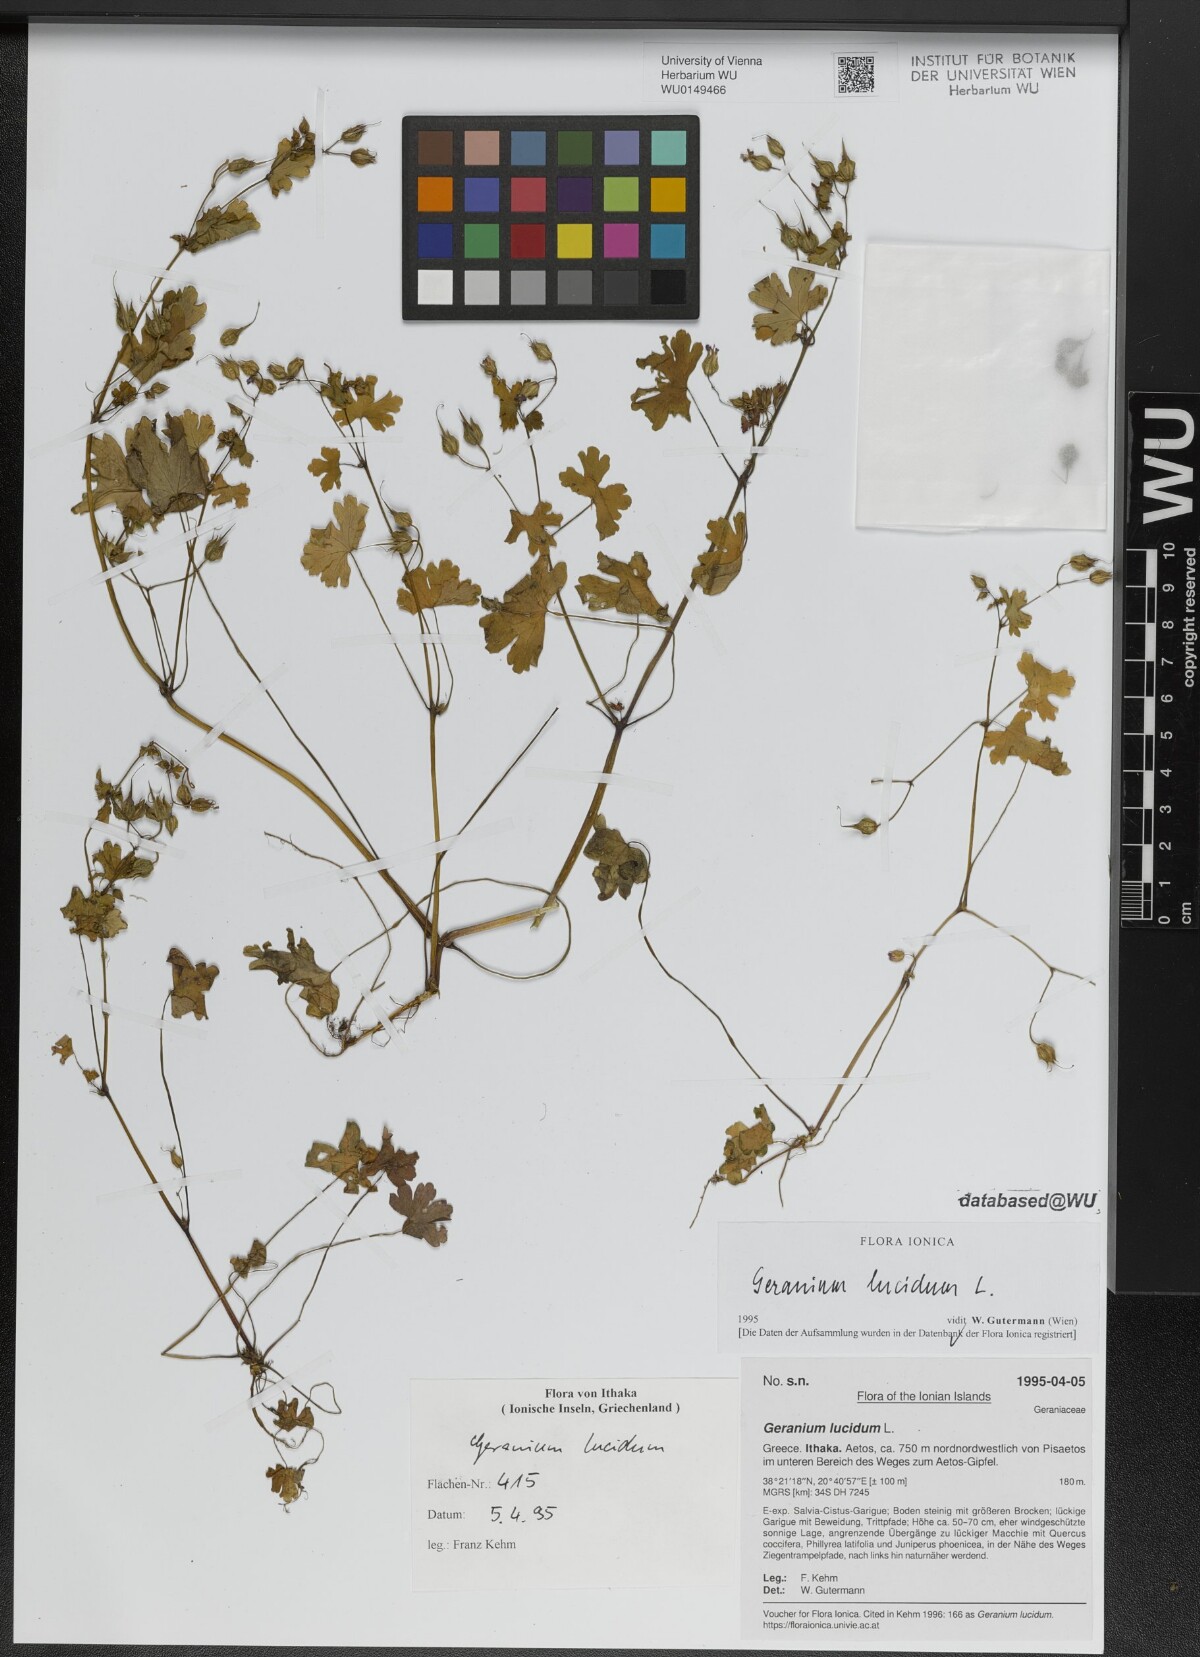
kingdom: Plantae
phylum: Tracheophyta
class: Magnoliopsida
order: Geraniales
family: Geraniaceae
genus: Geranium
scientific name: Geranium lucidum
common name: Shining crane's-bill
